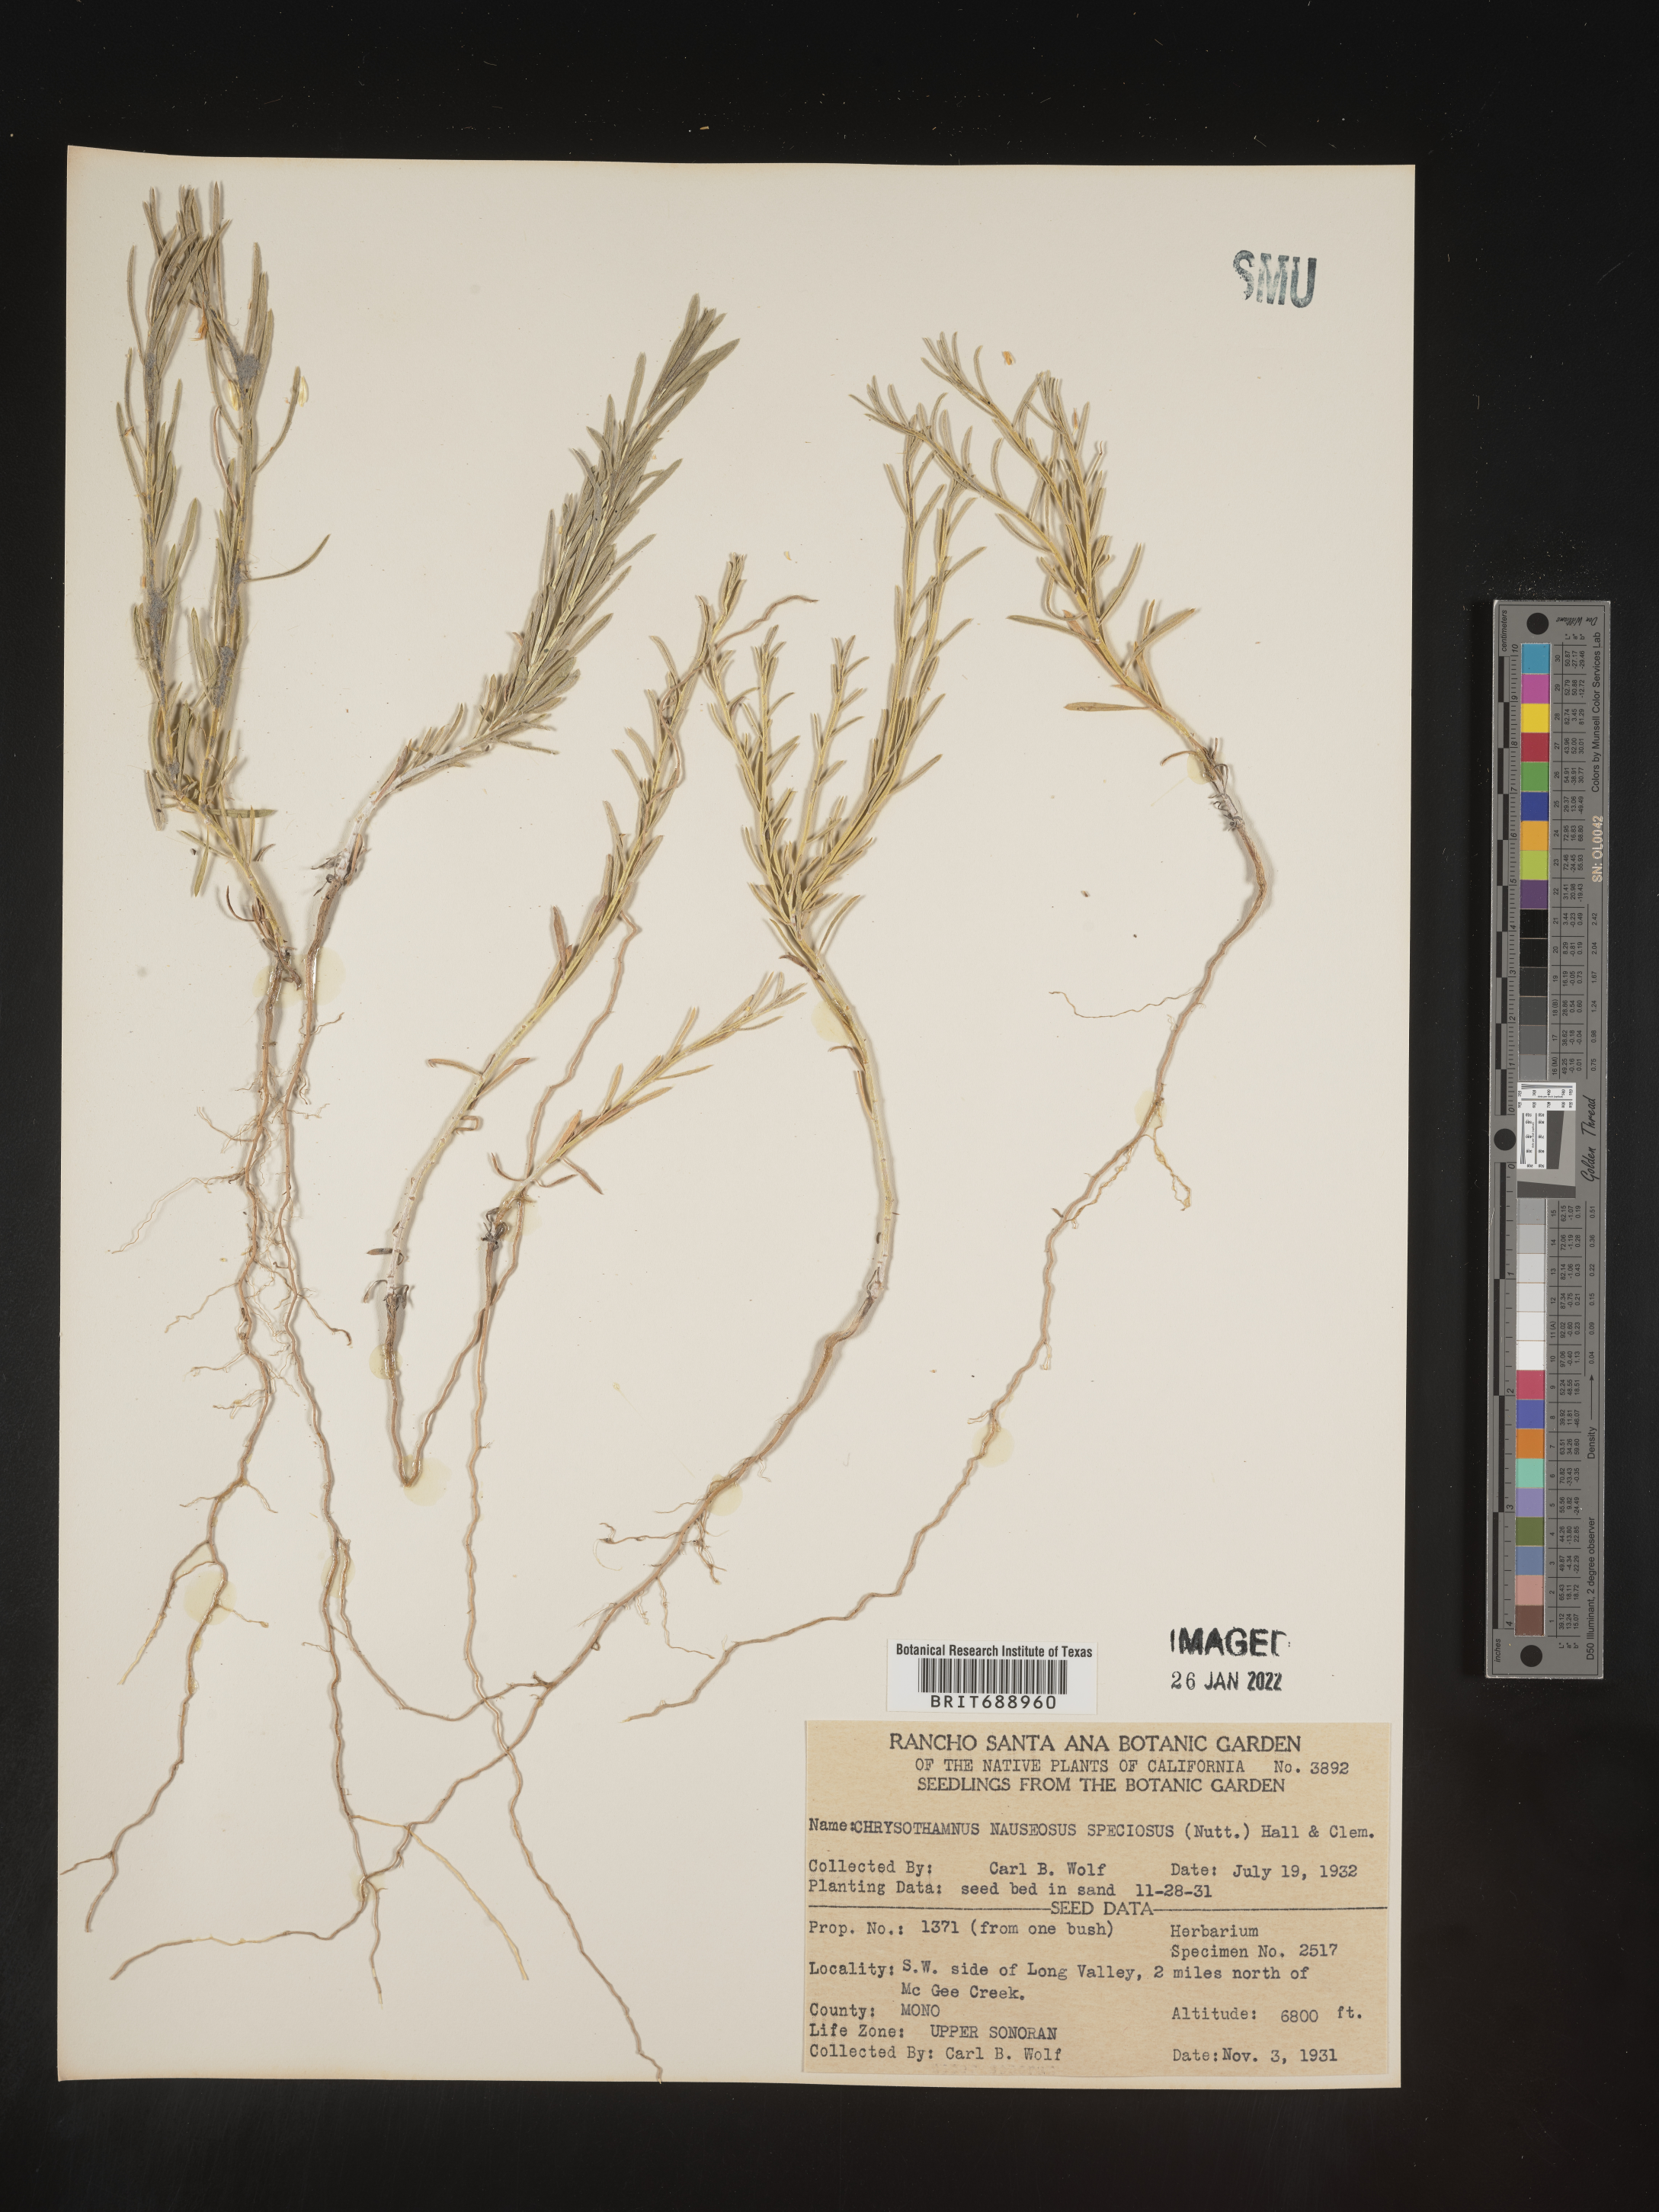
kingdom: Plantae
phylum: Tracheophyta
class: Magnoliopsida
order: Asterales
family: Asteraceae
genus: Ericameria
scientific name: Ericameria nauseosa
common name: Rubber rabbitbrush
